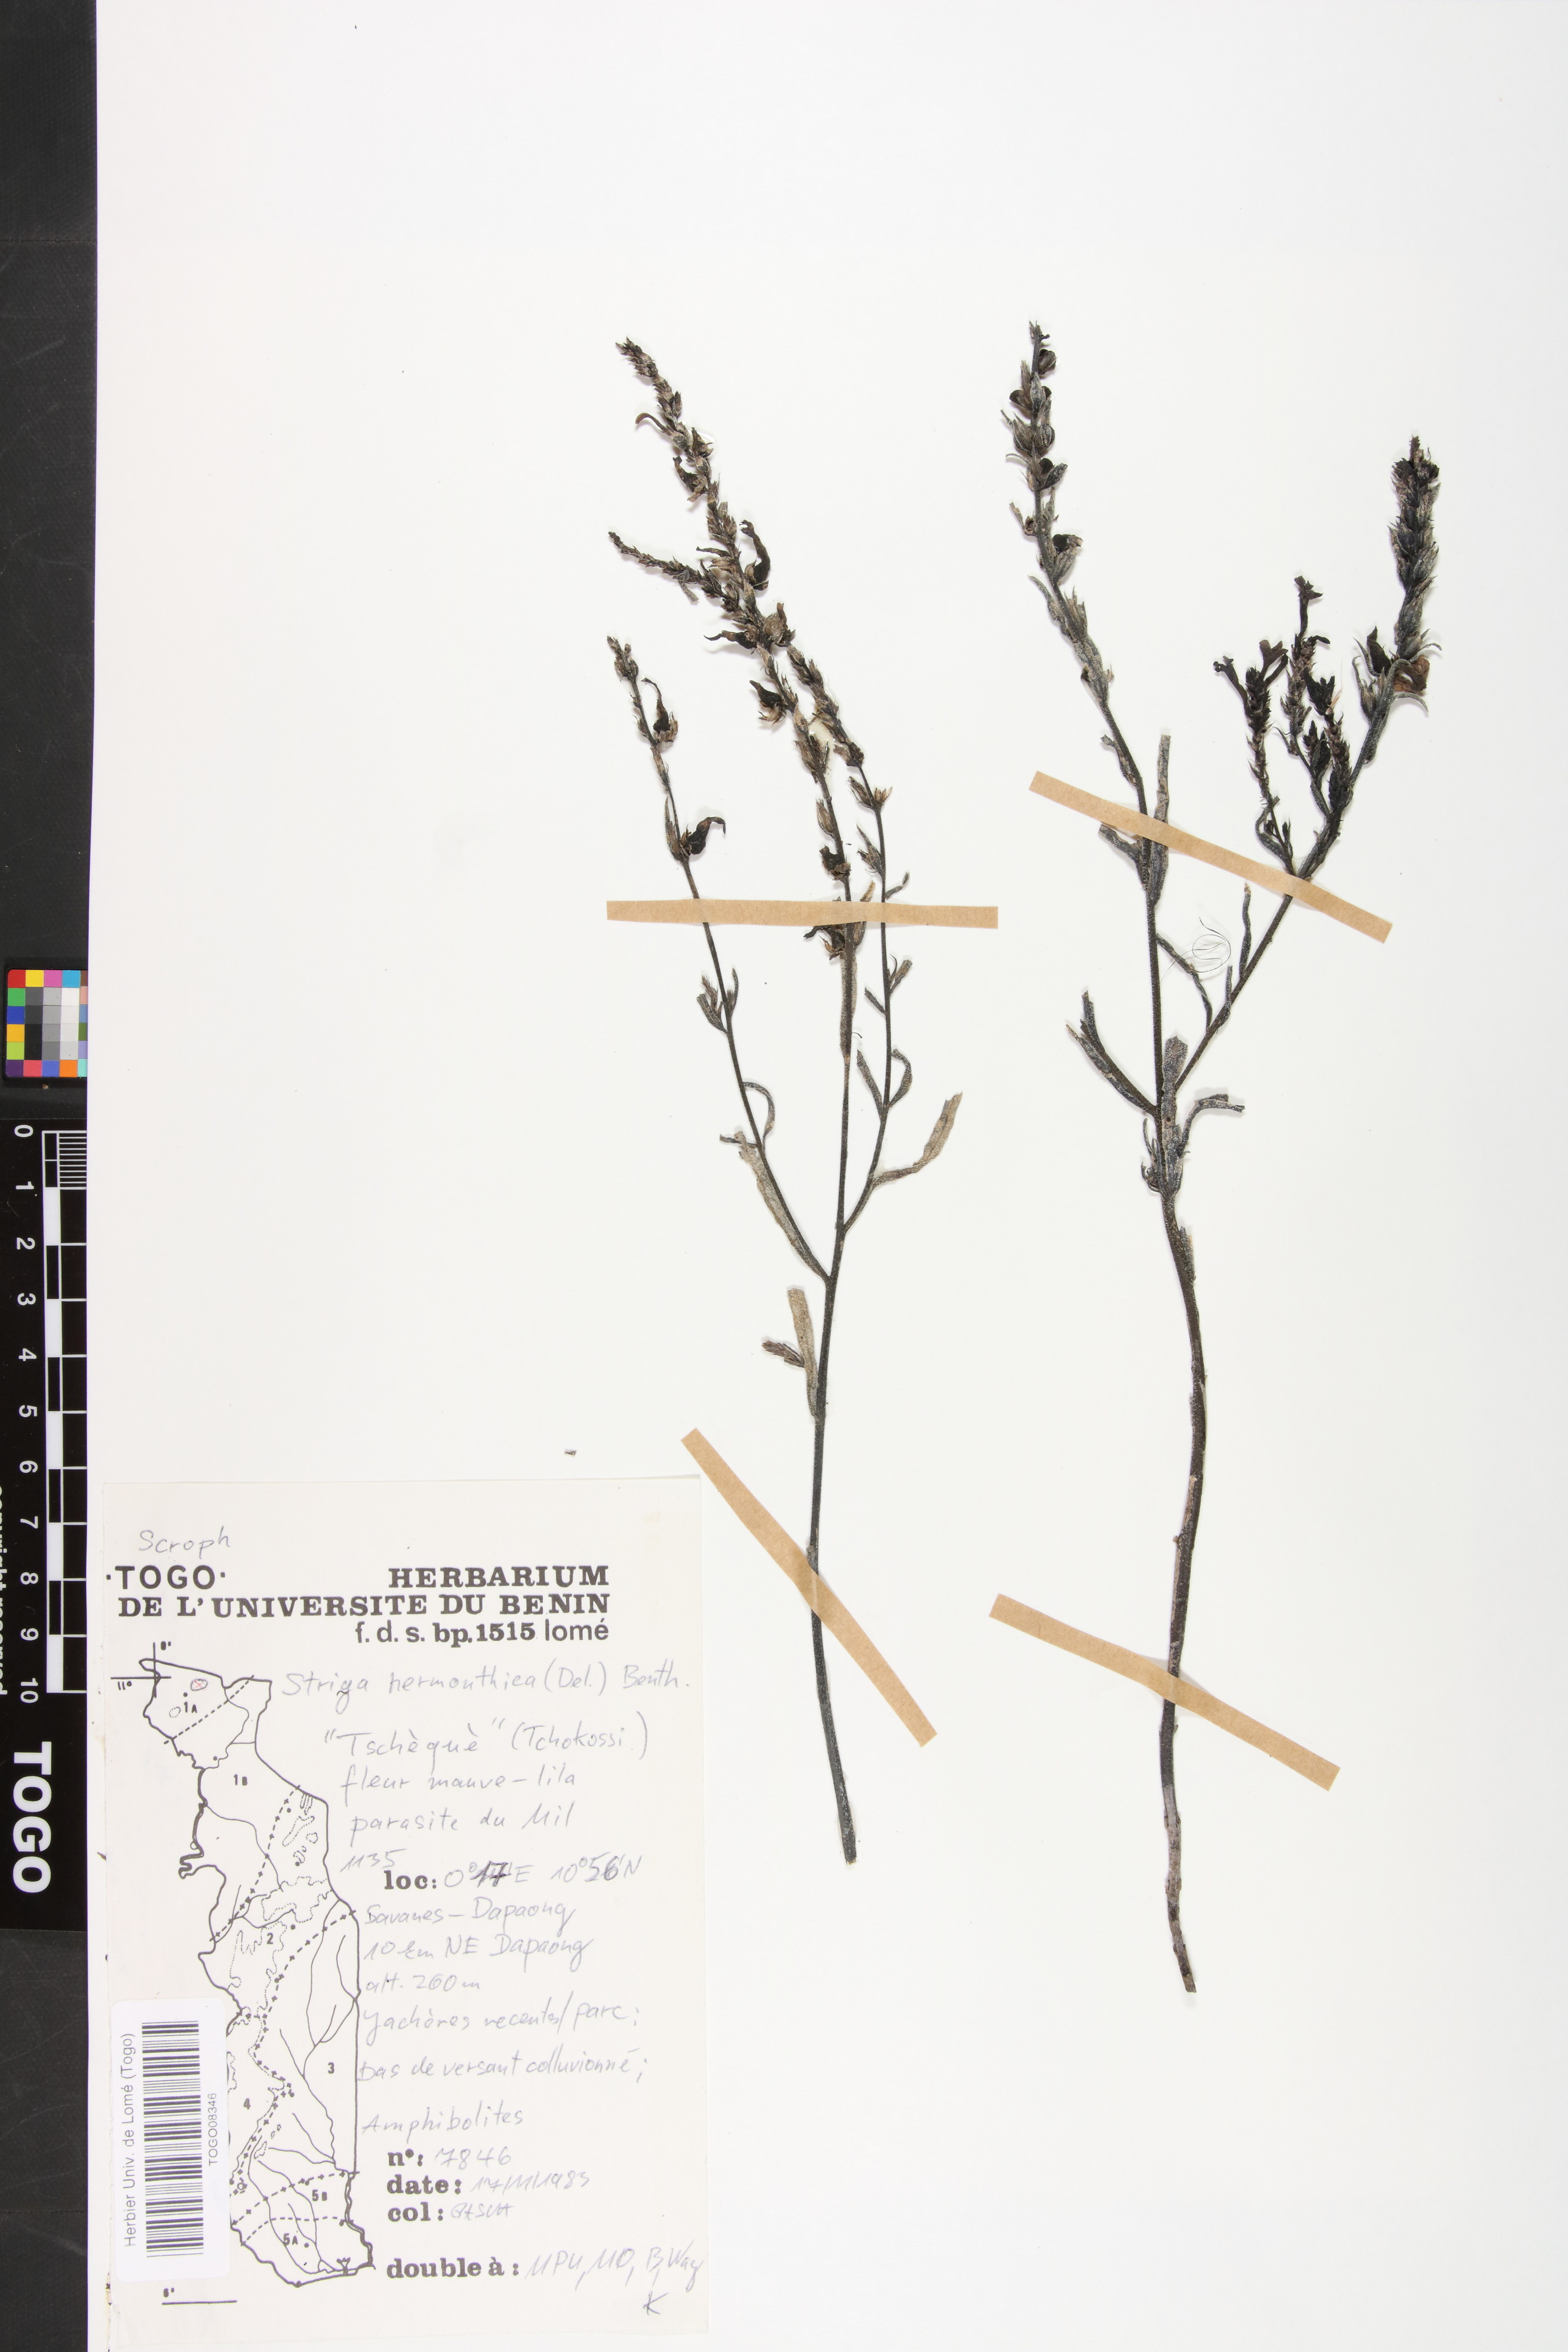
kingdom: Plantae
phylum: Tracheophyta
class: Magnoliopsida
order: Lamiales
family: Orobanchaceae
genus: Striga
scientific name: Striga hermonthica
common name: Purple witchweed
